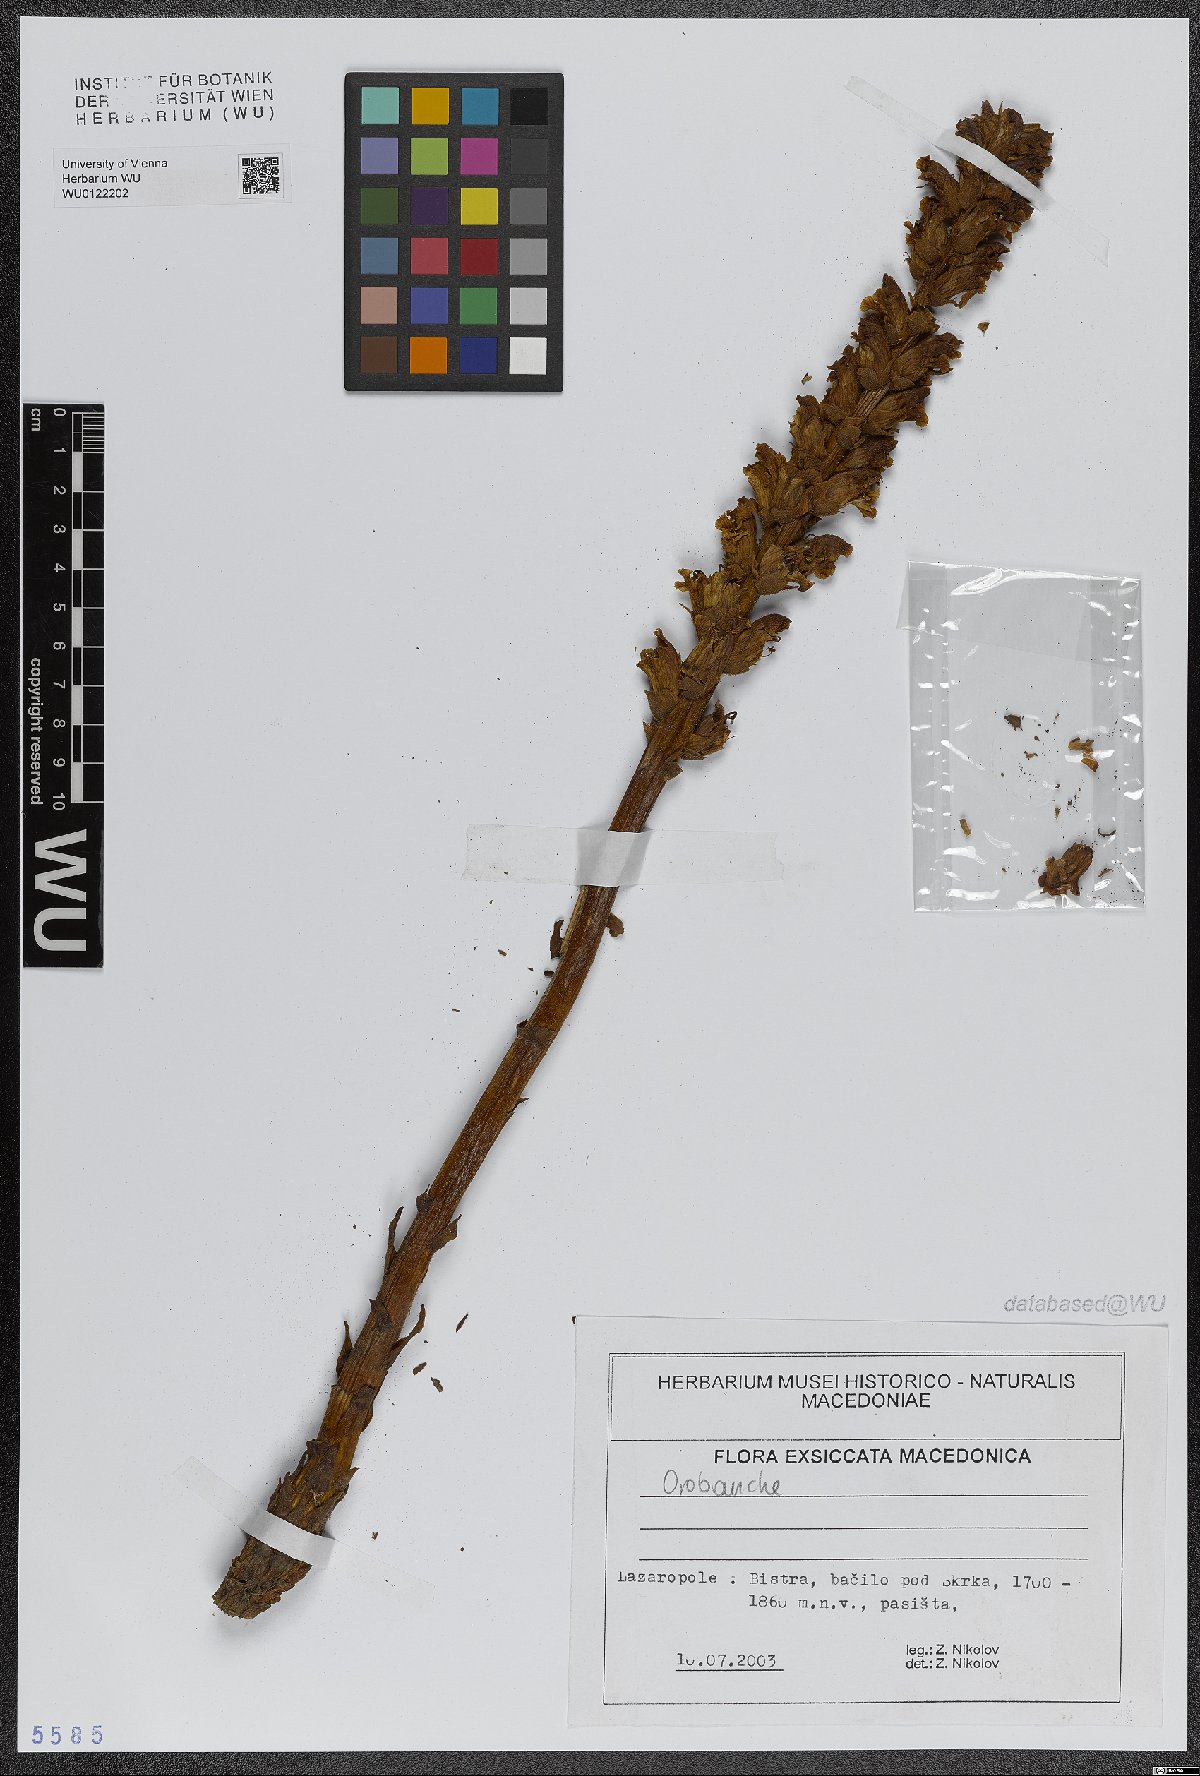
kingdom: Plantae
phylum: Tracheophyta
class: Magnoliopsida
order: Lamiales
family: Orobanchaceae
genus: Orobanche
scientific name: Orobanche
